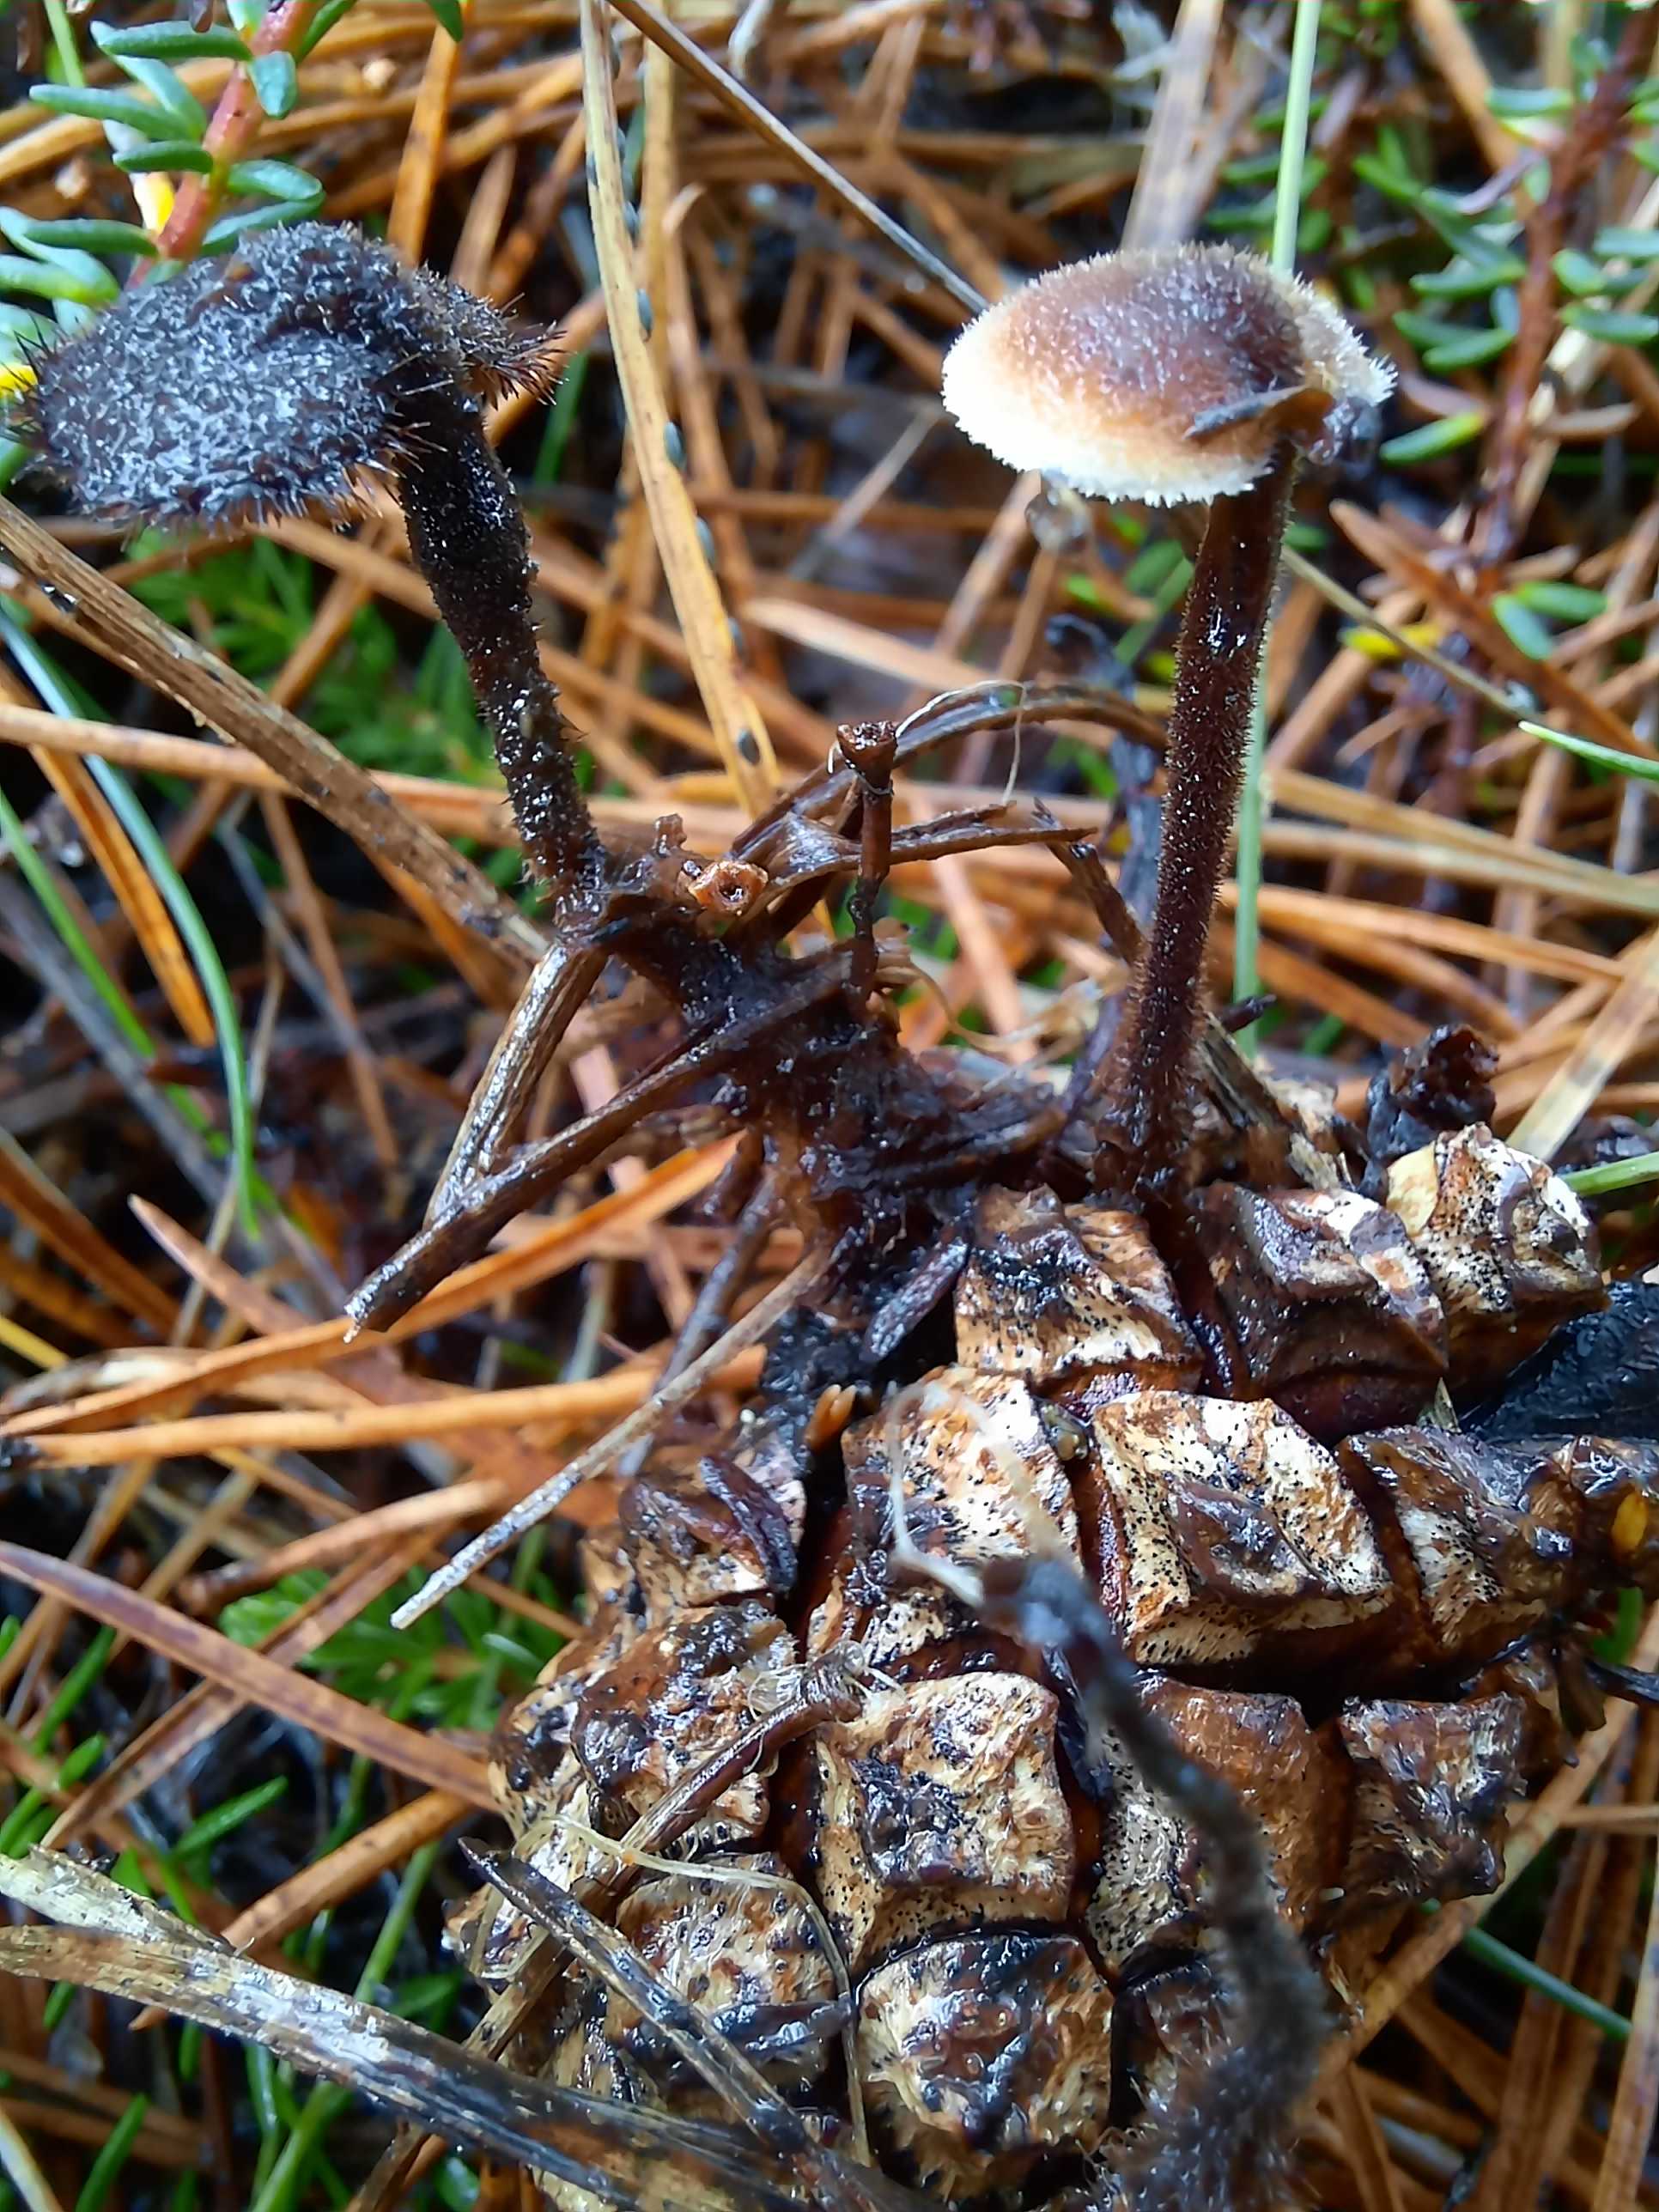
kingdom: Fungi
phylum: Basidiomycota
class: Agaricomycetes
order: Russulales
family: Auriscalpiaceae
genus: Auriscalpium
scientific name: Auriscalpium vulgare
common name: koglepigsvamp
